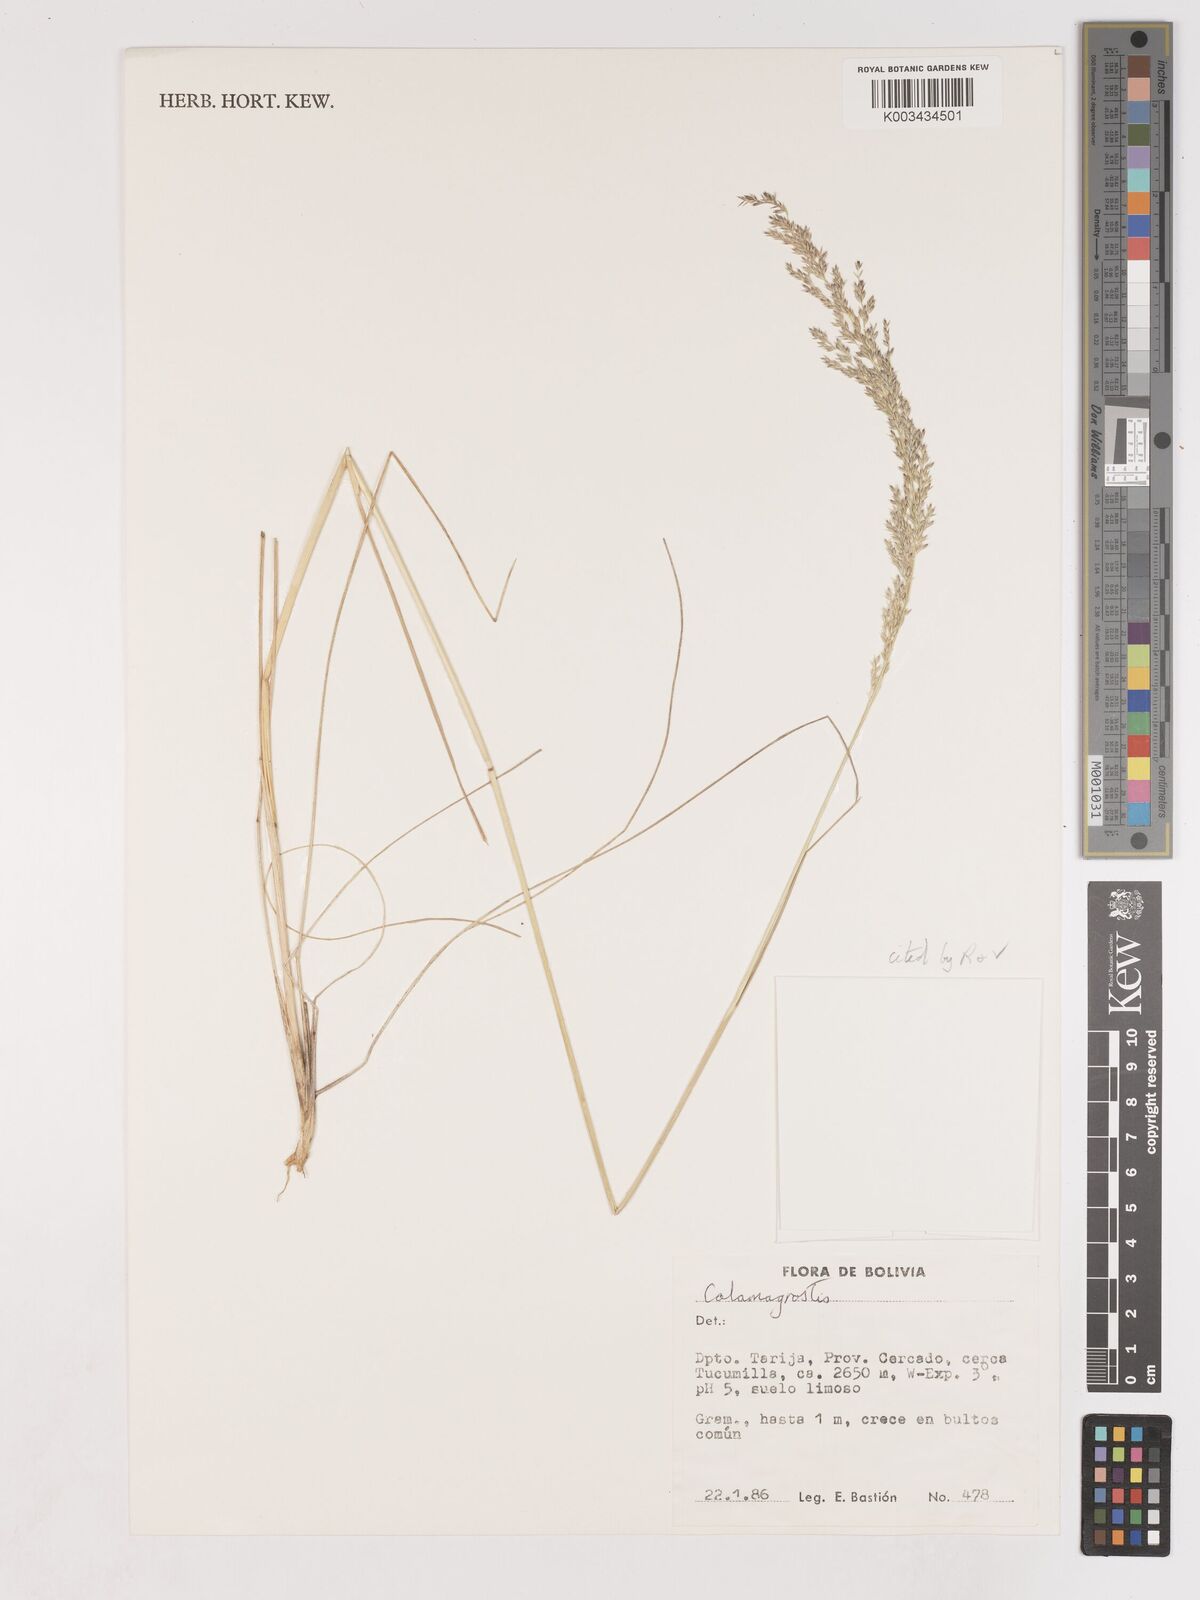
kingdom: Plantae
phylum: Tracheophyta
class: Liliopsida
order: Poales
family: Poaceae
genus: Cinnagrostis
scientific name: Cinnagrostis hieronymi
